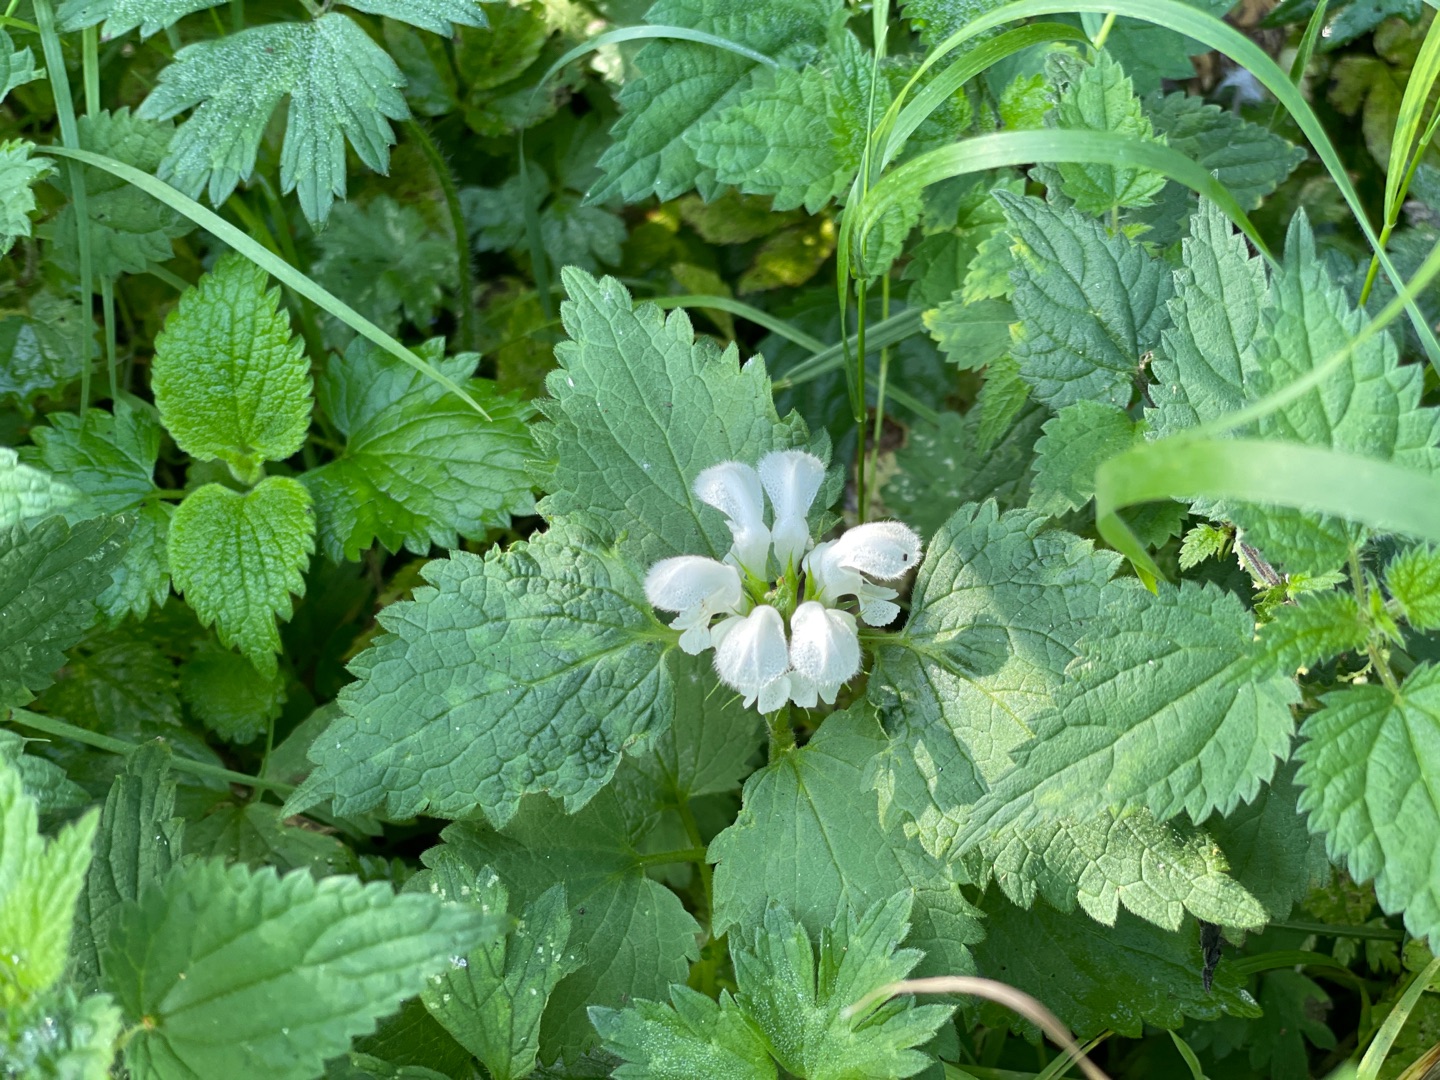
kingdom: Plantae
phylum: Tracheophyta
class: Magnoliopsida
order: Lamiales
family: Lamiaceae
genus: Lamium
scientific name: Lamium album
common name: Døvnælde
